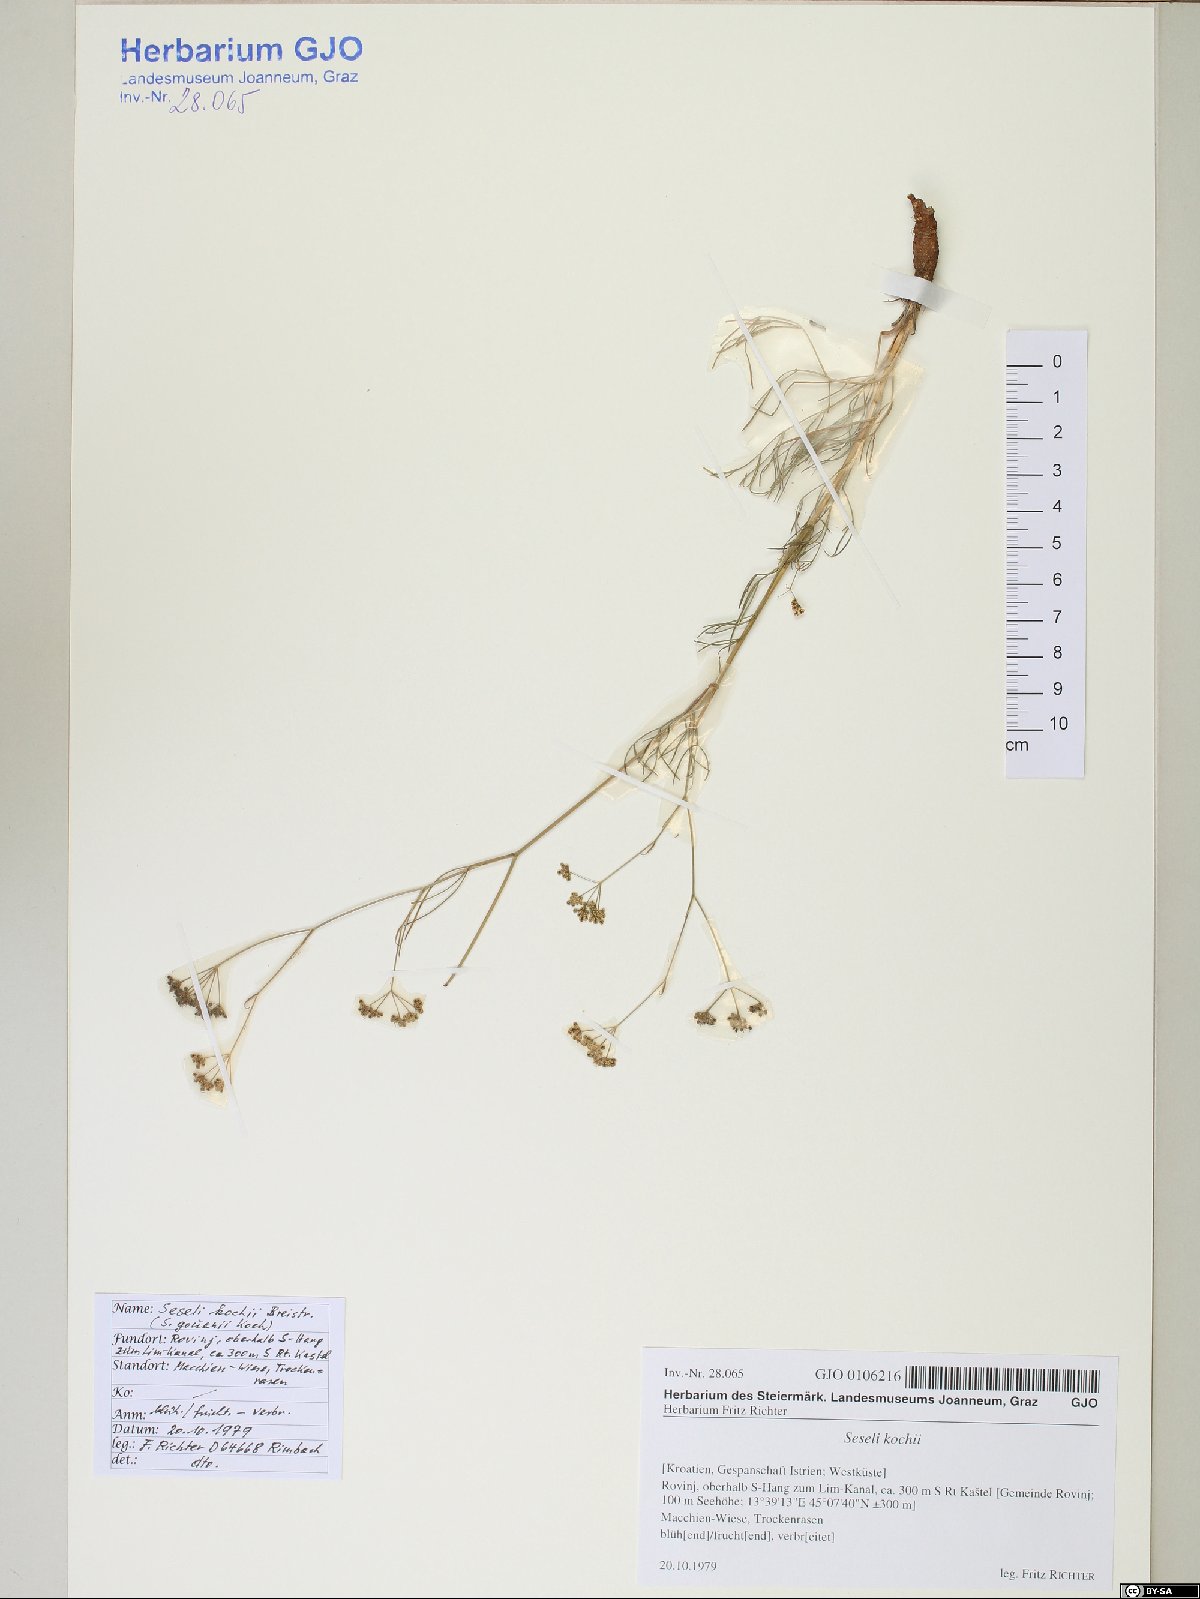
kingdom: Plantae
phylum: Tracheophyta
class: Magnoliopsida
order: Apiales
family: Apiaceae
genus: Seseli
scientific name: Seseli gouanii
